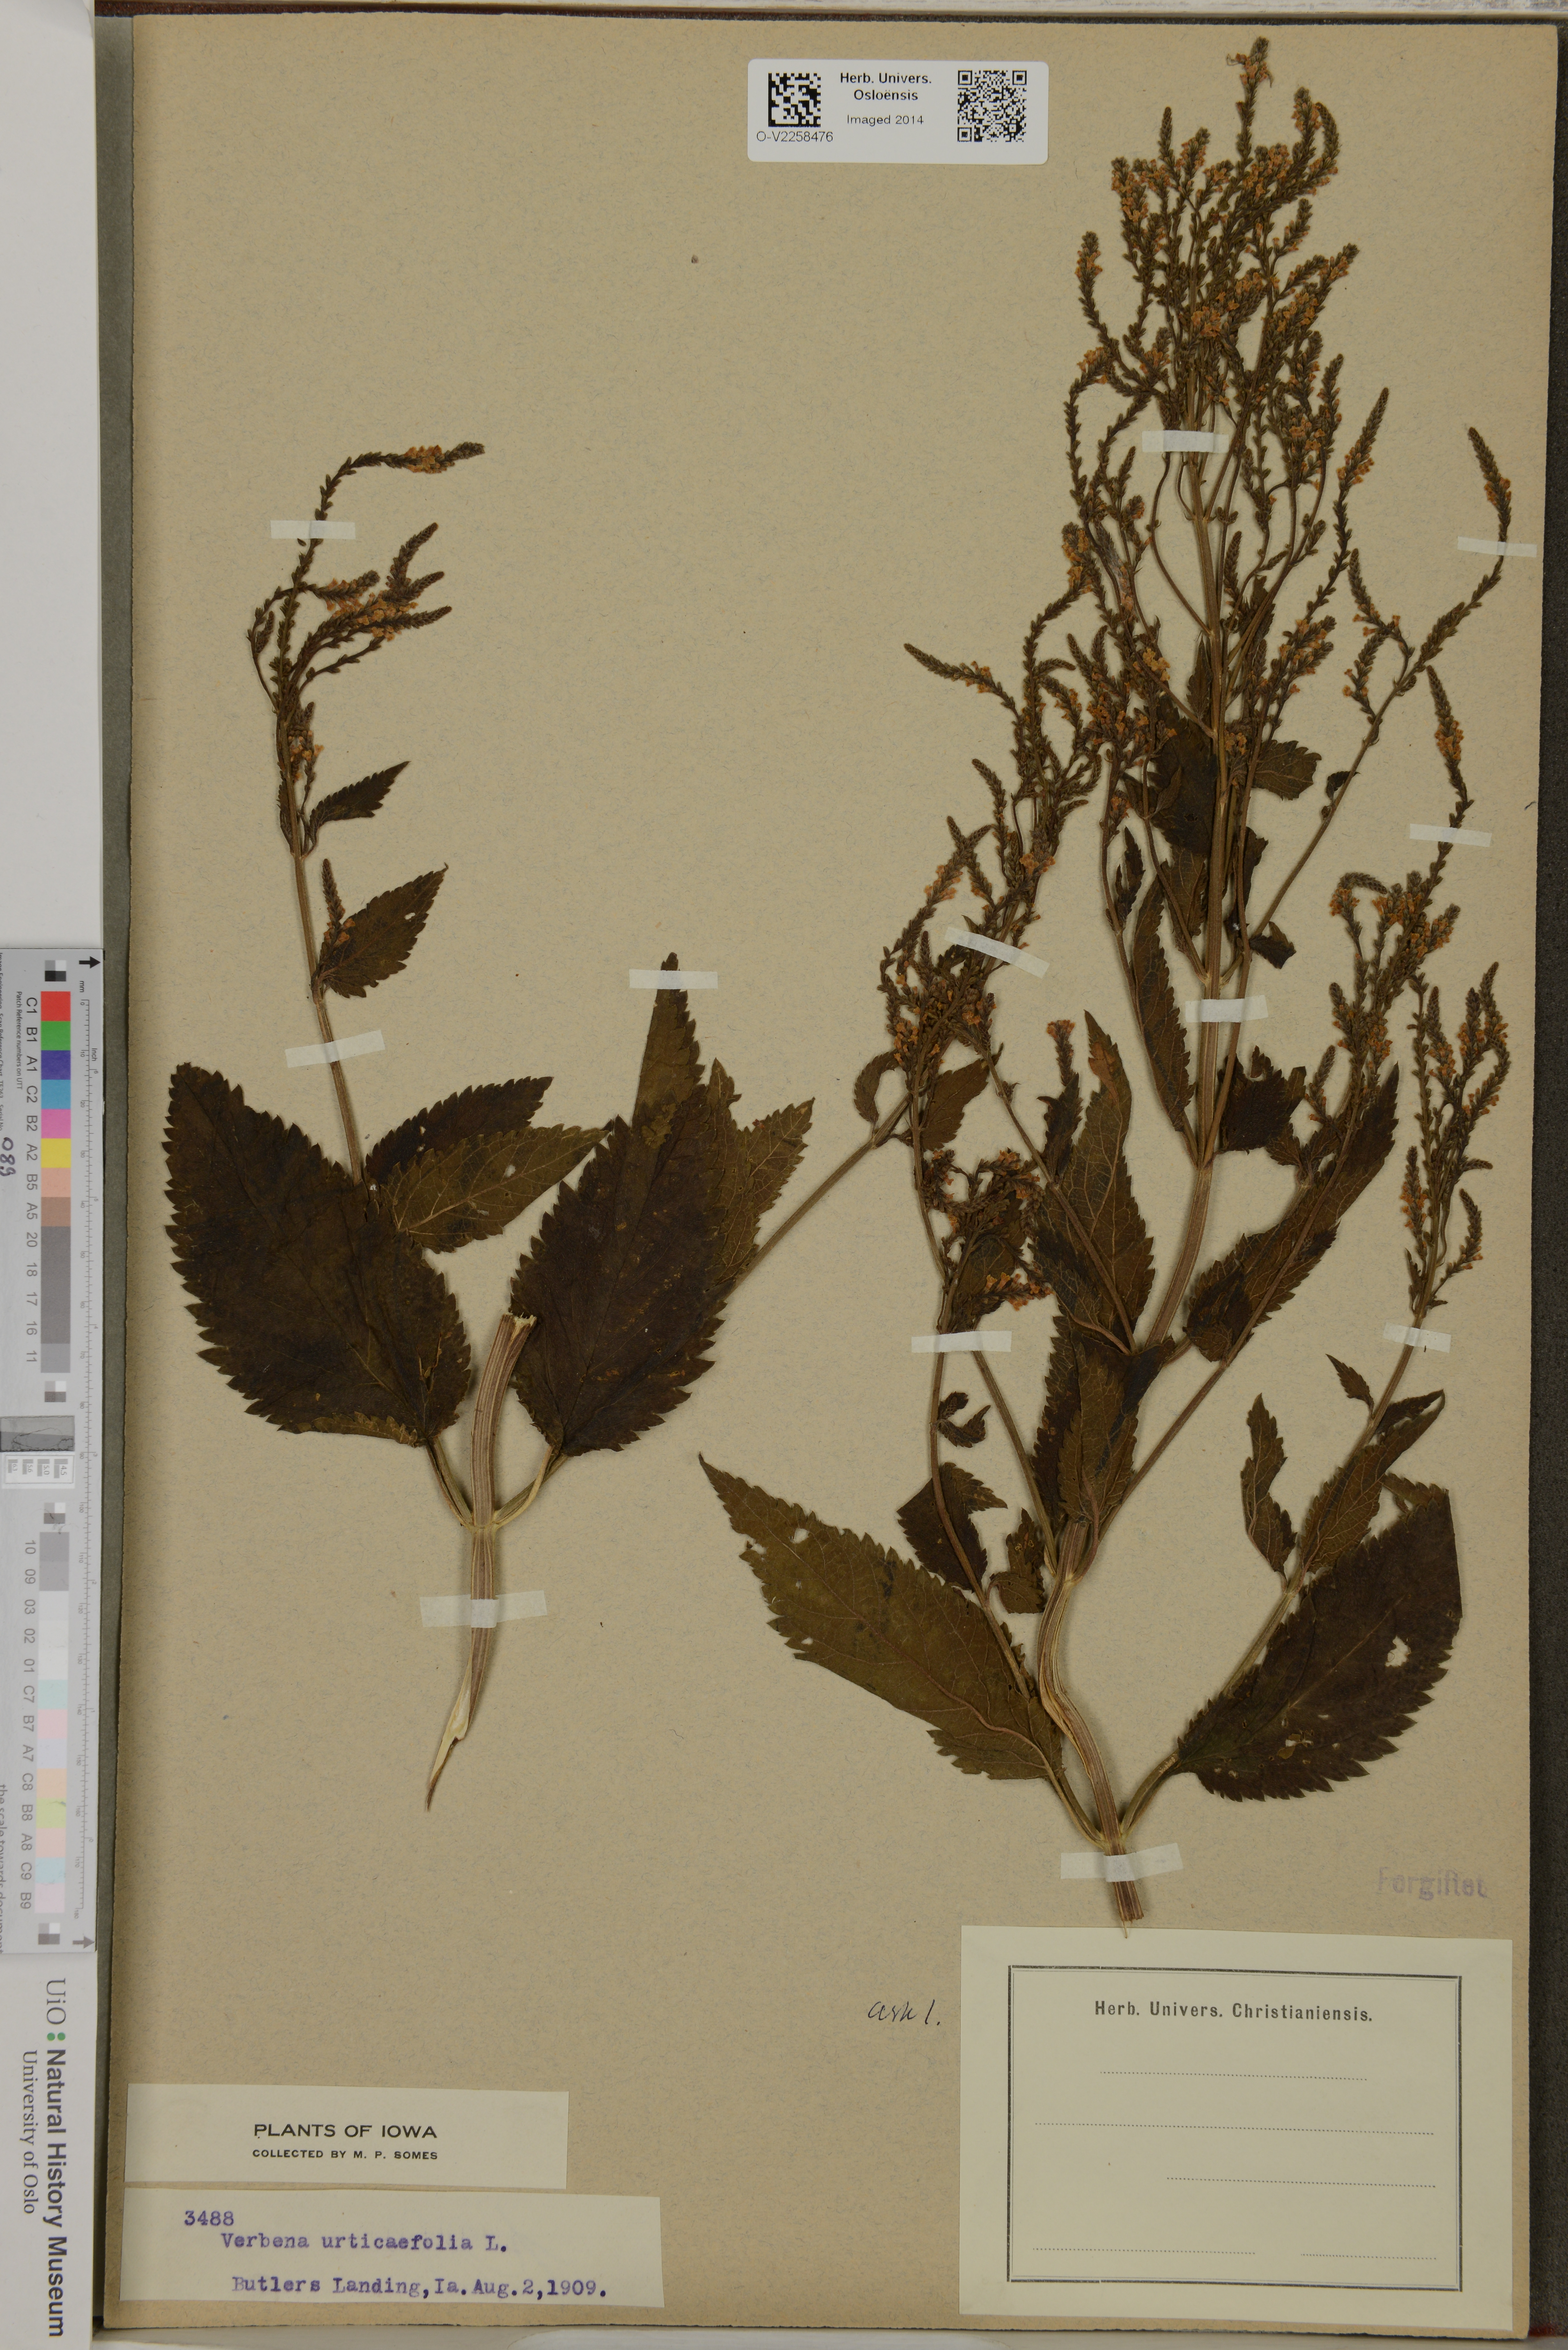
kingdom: Plantae
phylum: Tracheophyta
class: Magnoliopsida
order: Lamiales
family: Verbenaceae
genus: Verbena
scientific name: Verbena urticifolia
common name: Nettle-leaved vervain
